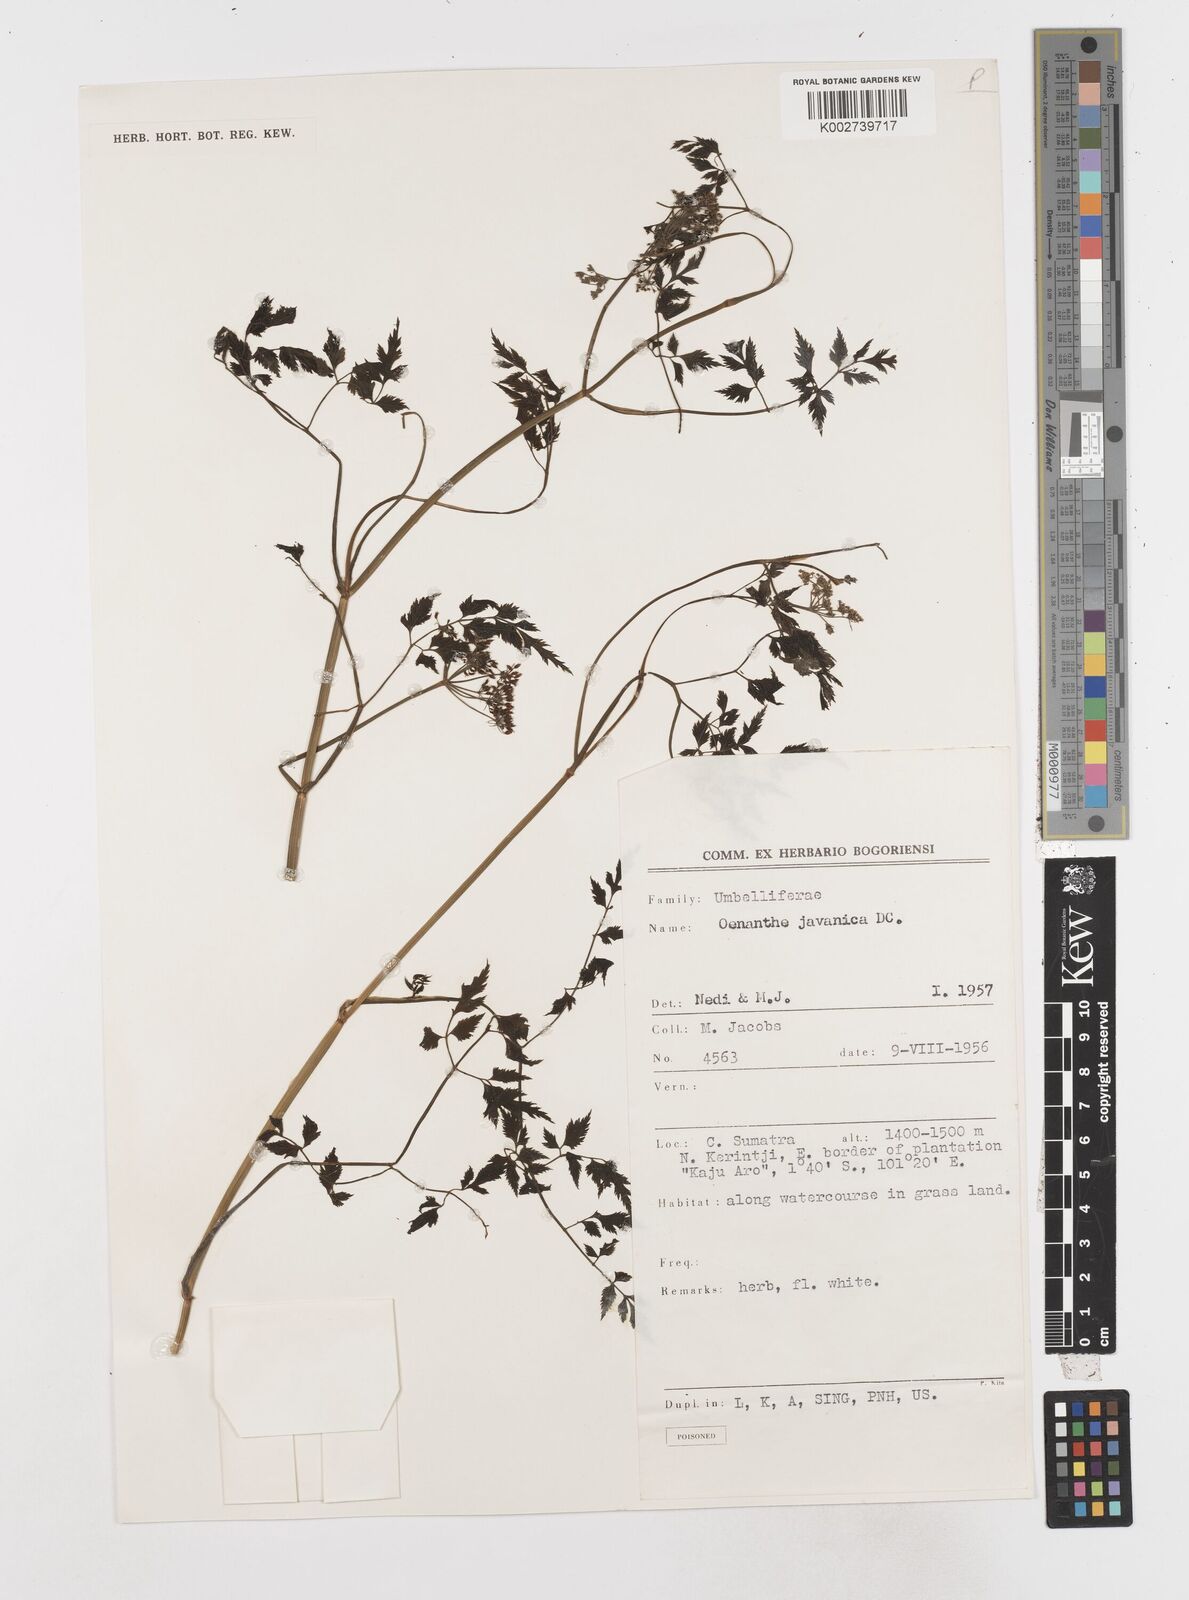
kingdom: Plantae
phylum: Tracheophyta
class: Magnoliopsida
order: Apiales
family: Apiaceae
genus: Oenanthe
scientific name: Oenanthe javanica
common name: Java water-dropwort
